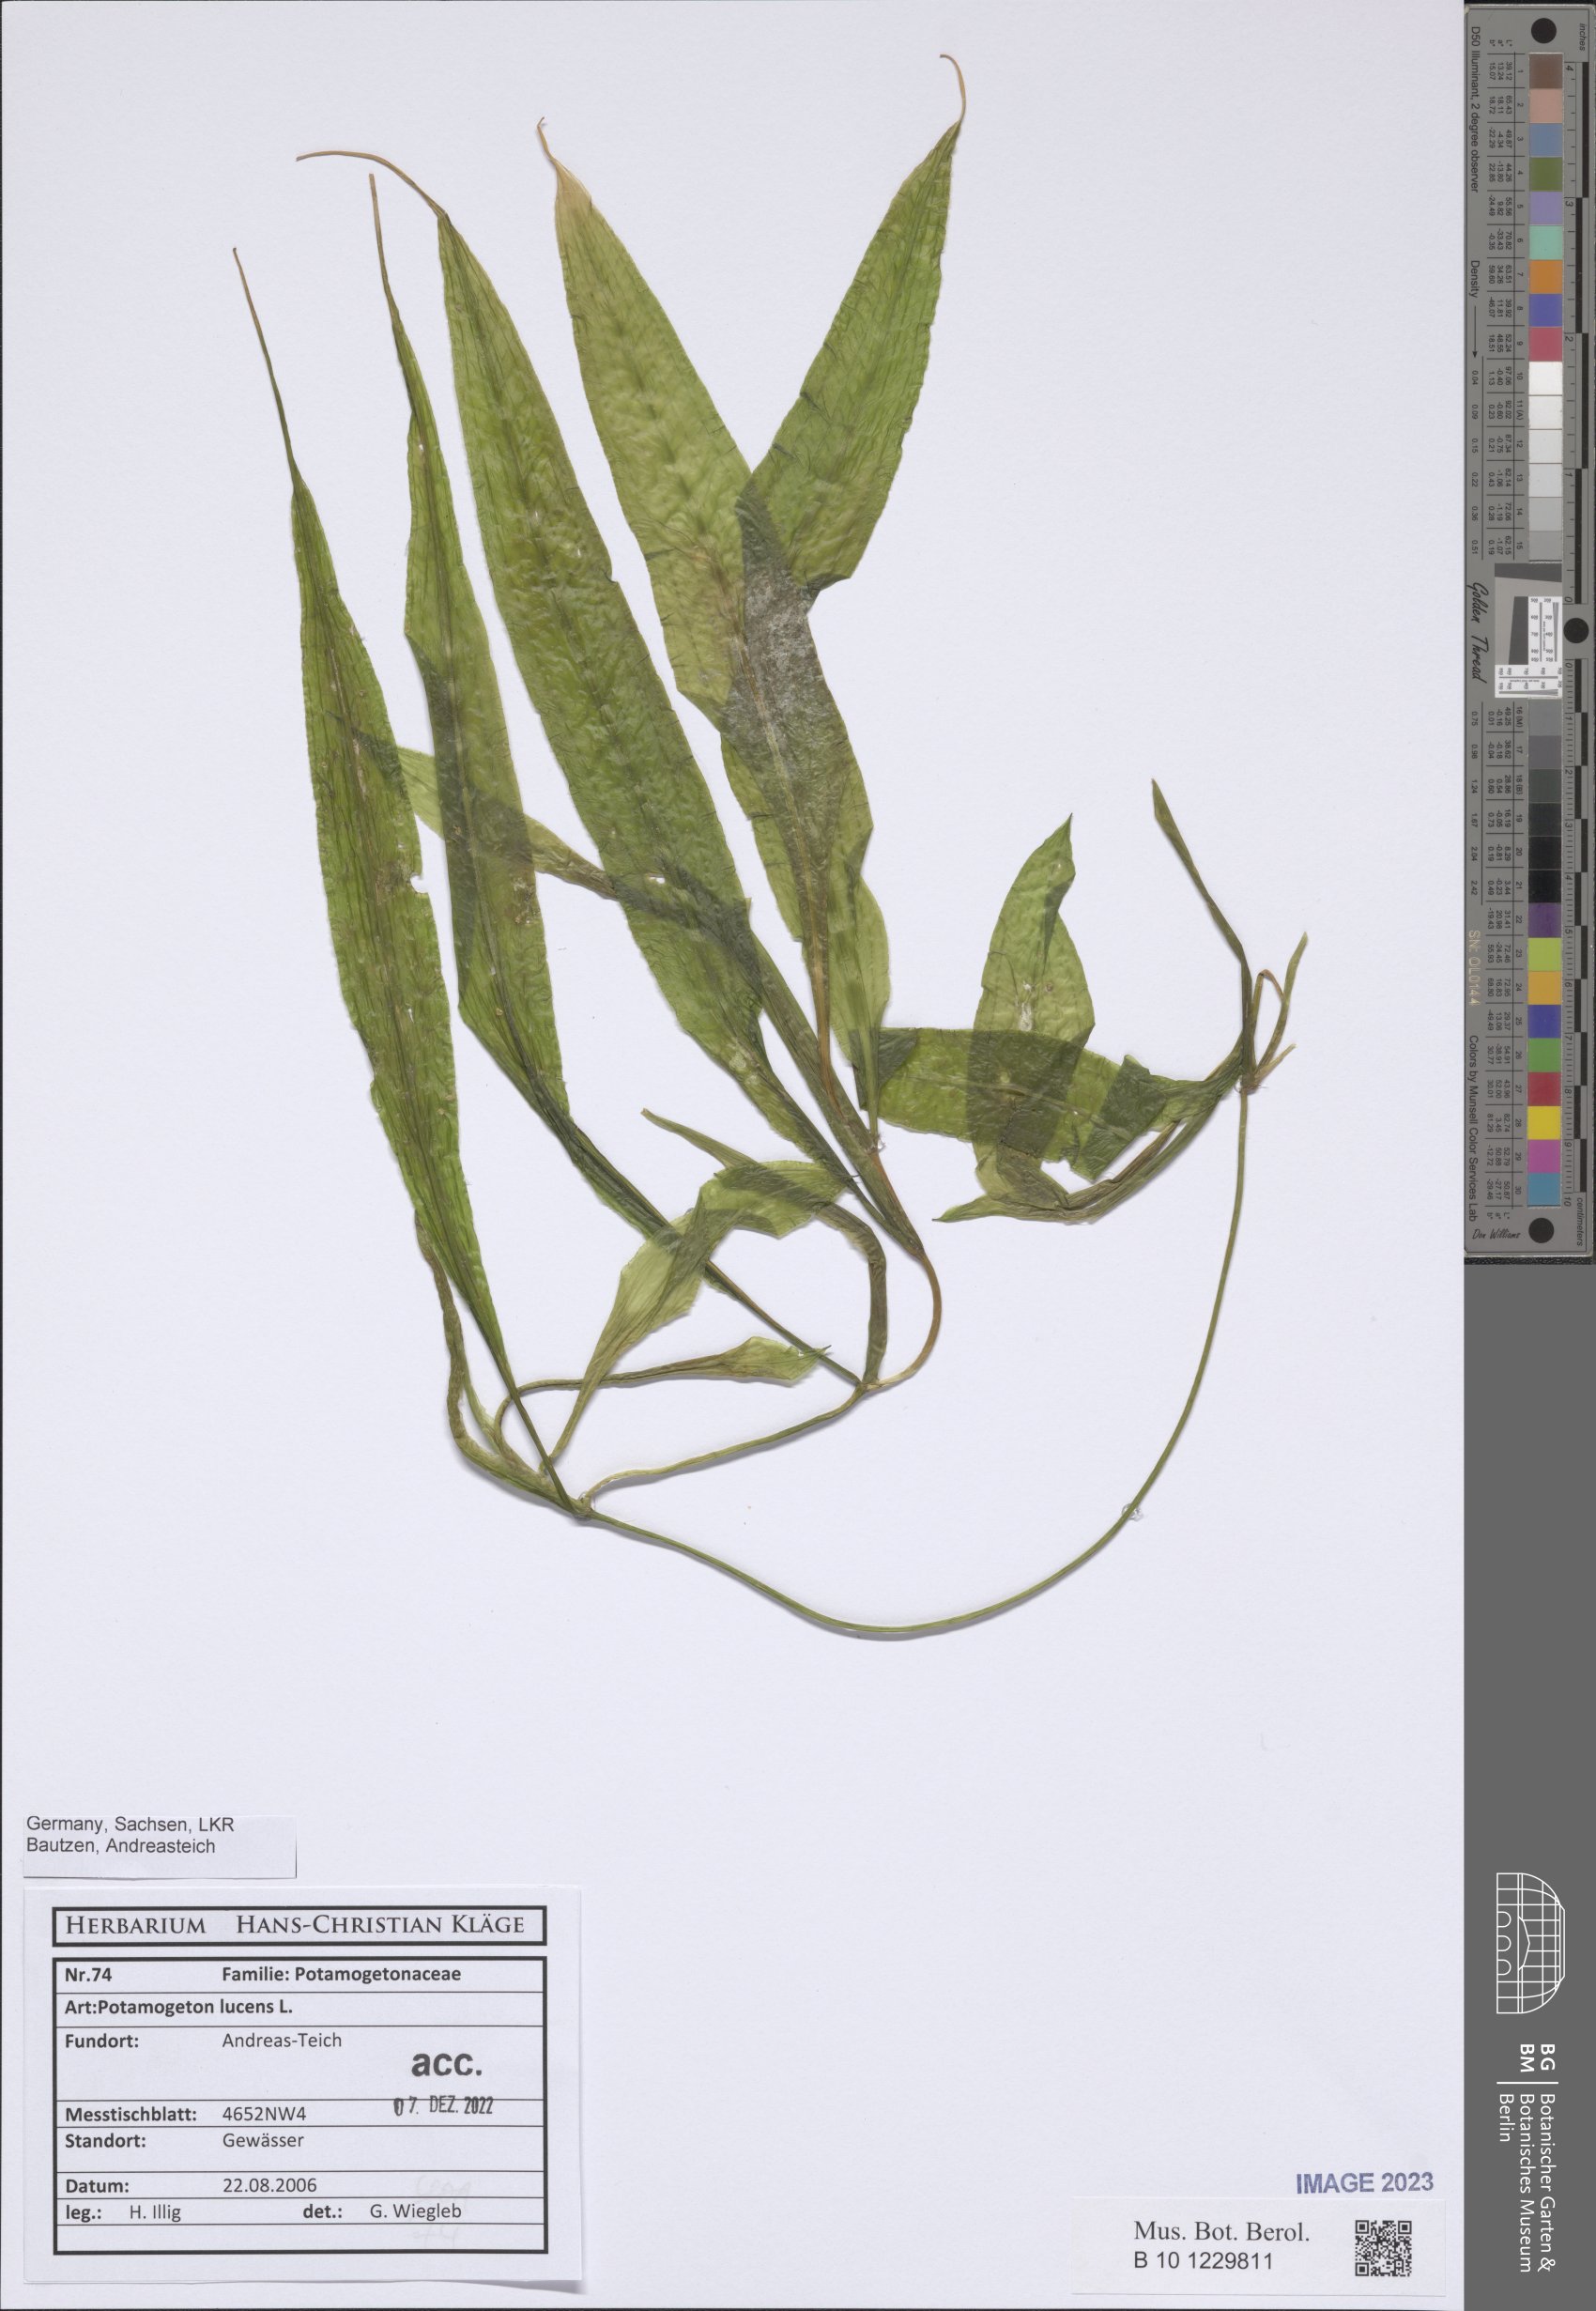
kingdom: Plantae
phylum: Tracheophyta
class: Liliopsida
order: Alismatales
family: Potamogetonaceae
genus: Potamogeton
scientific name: Potamogeton lucens
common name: Shining pondweed
